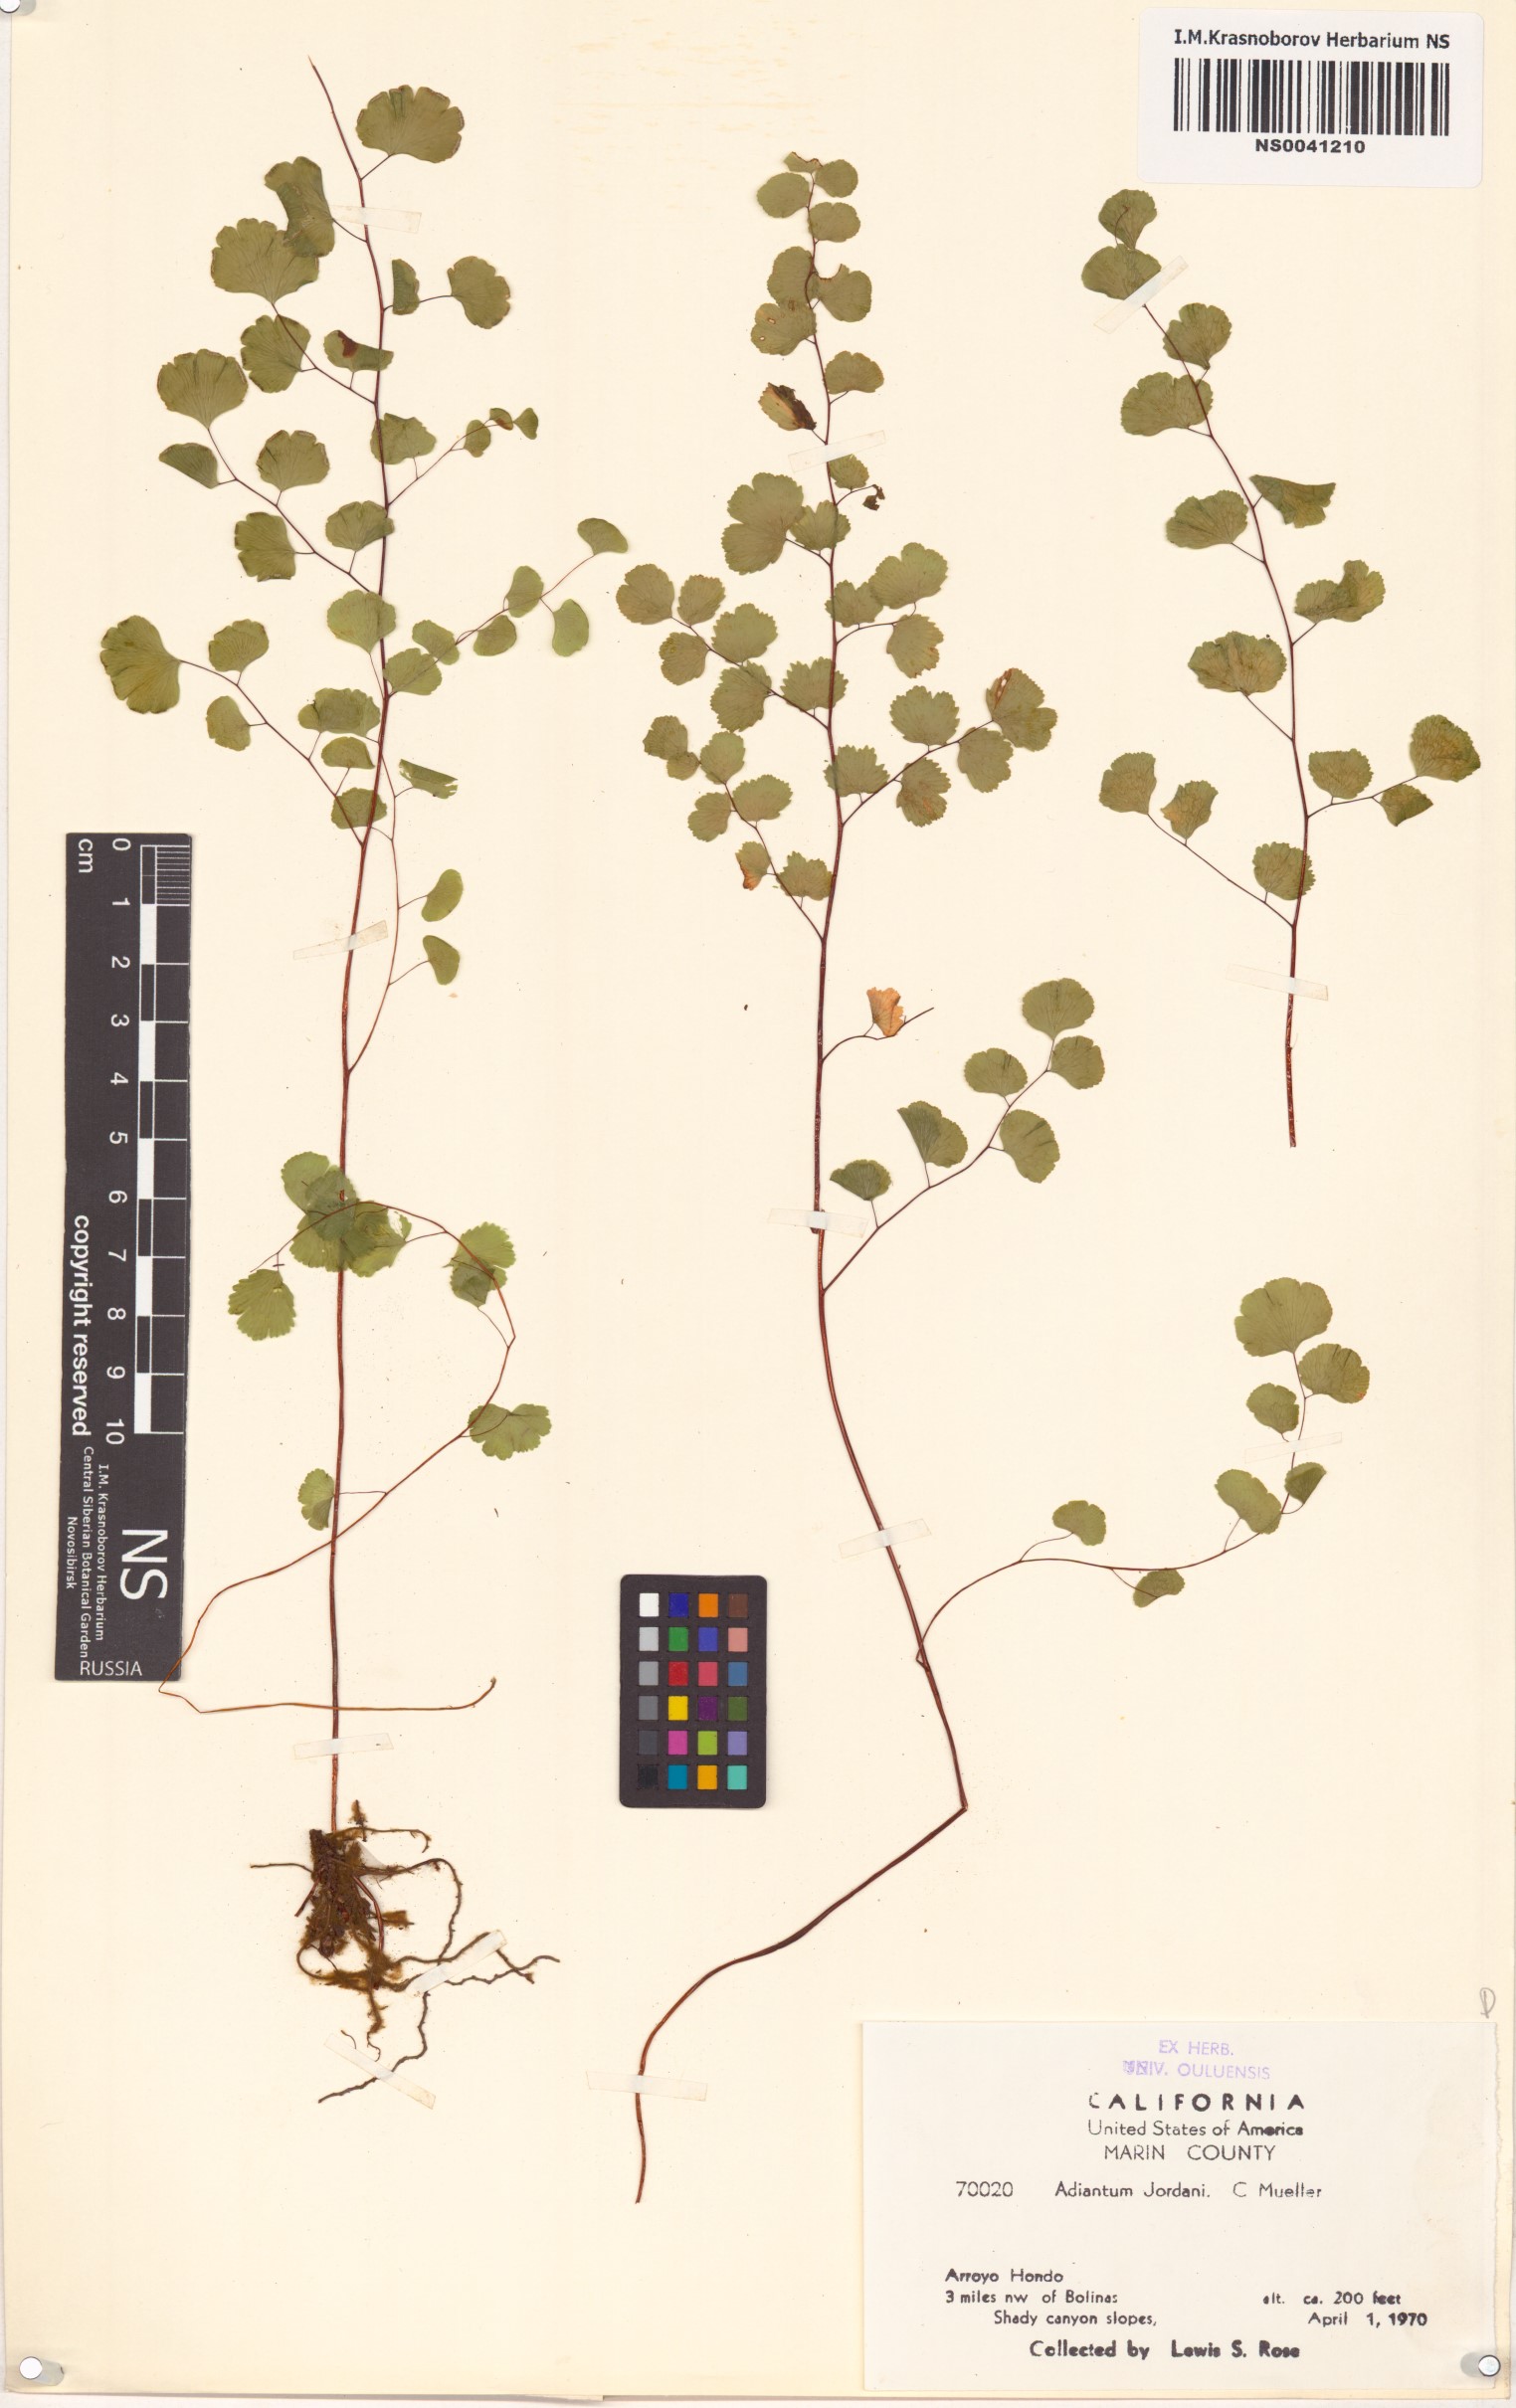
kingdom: Plantae
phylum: Tracheophyta
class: Polypodiopsida
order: Polypodiales
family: Pteridaceae
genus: Adiantum
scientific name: Adiantum jordanii
